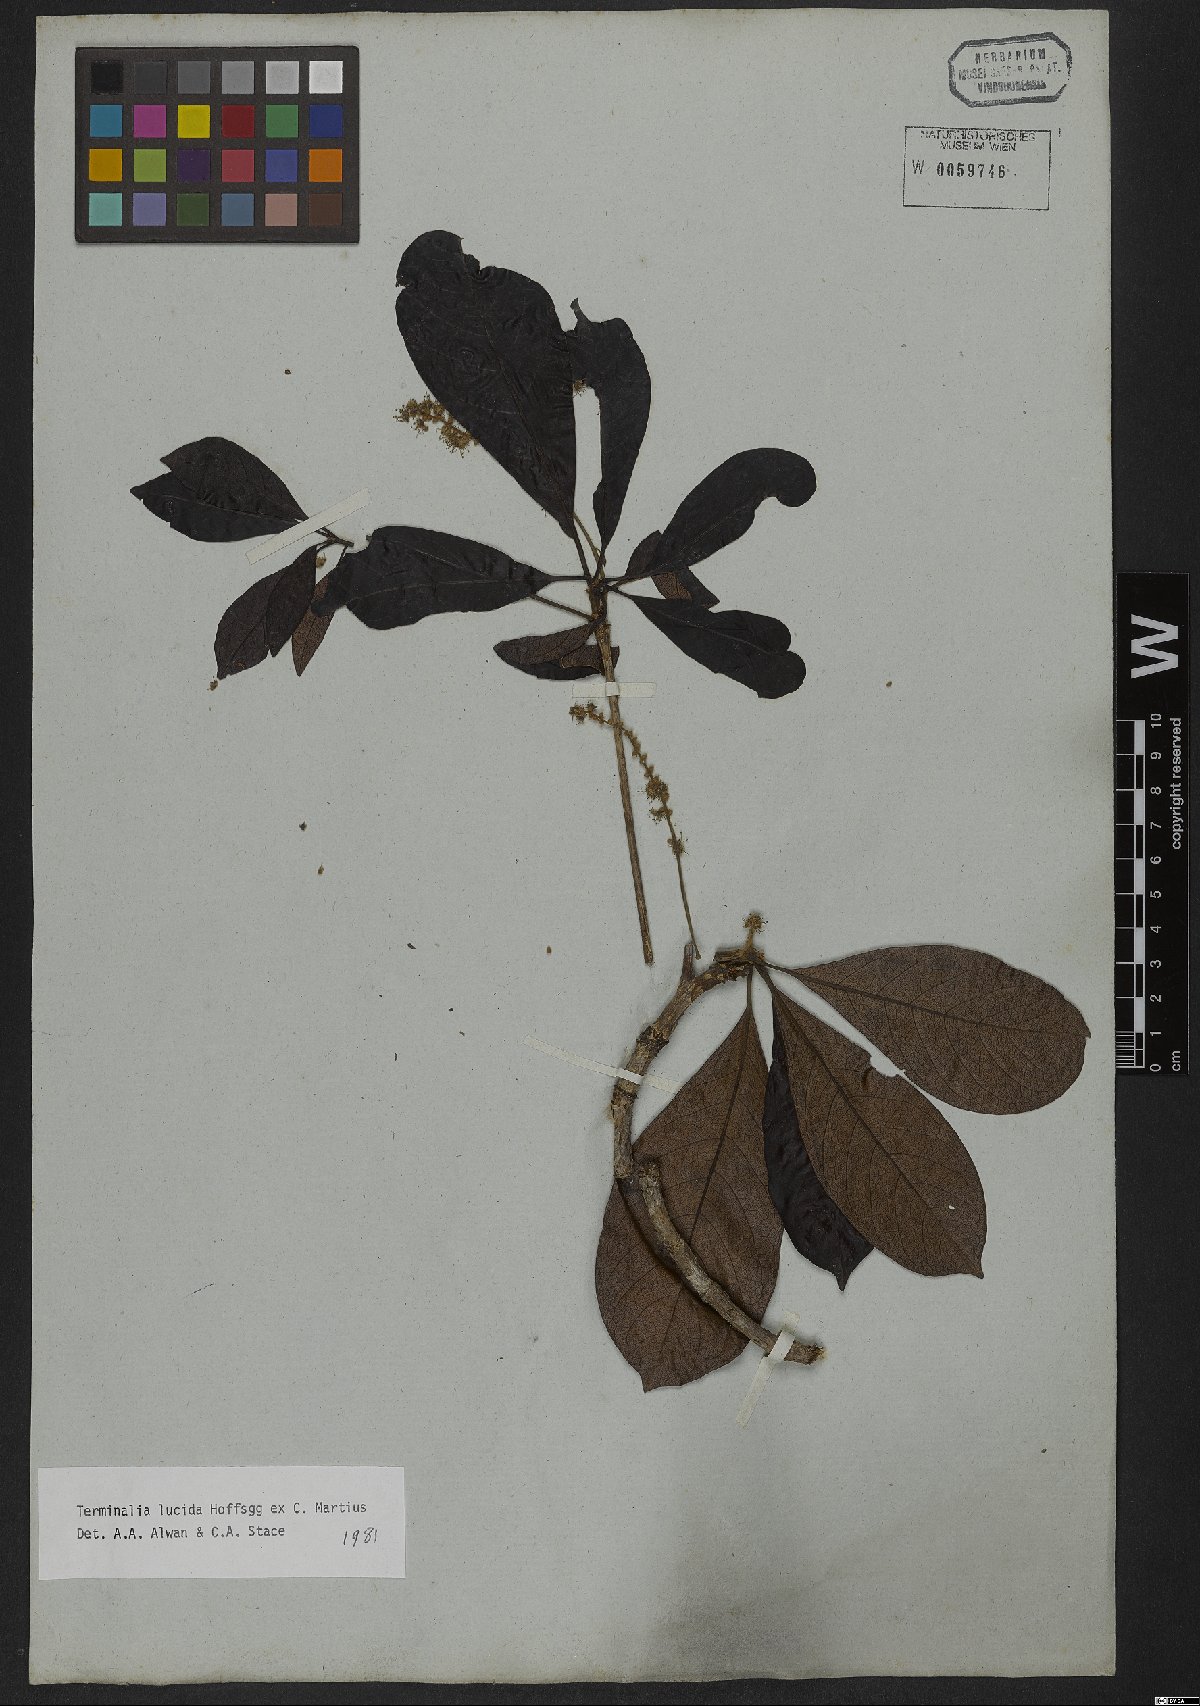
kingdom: Plantae
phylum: Tracheophyta
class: Magnoliopsida
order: Myrtales
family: Combretaceae
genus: Terminalia
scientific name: Terminalia lucida
